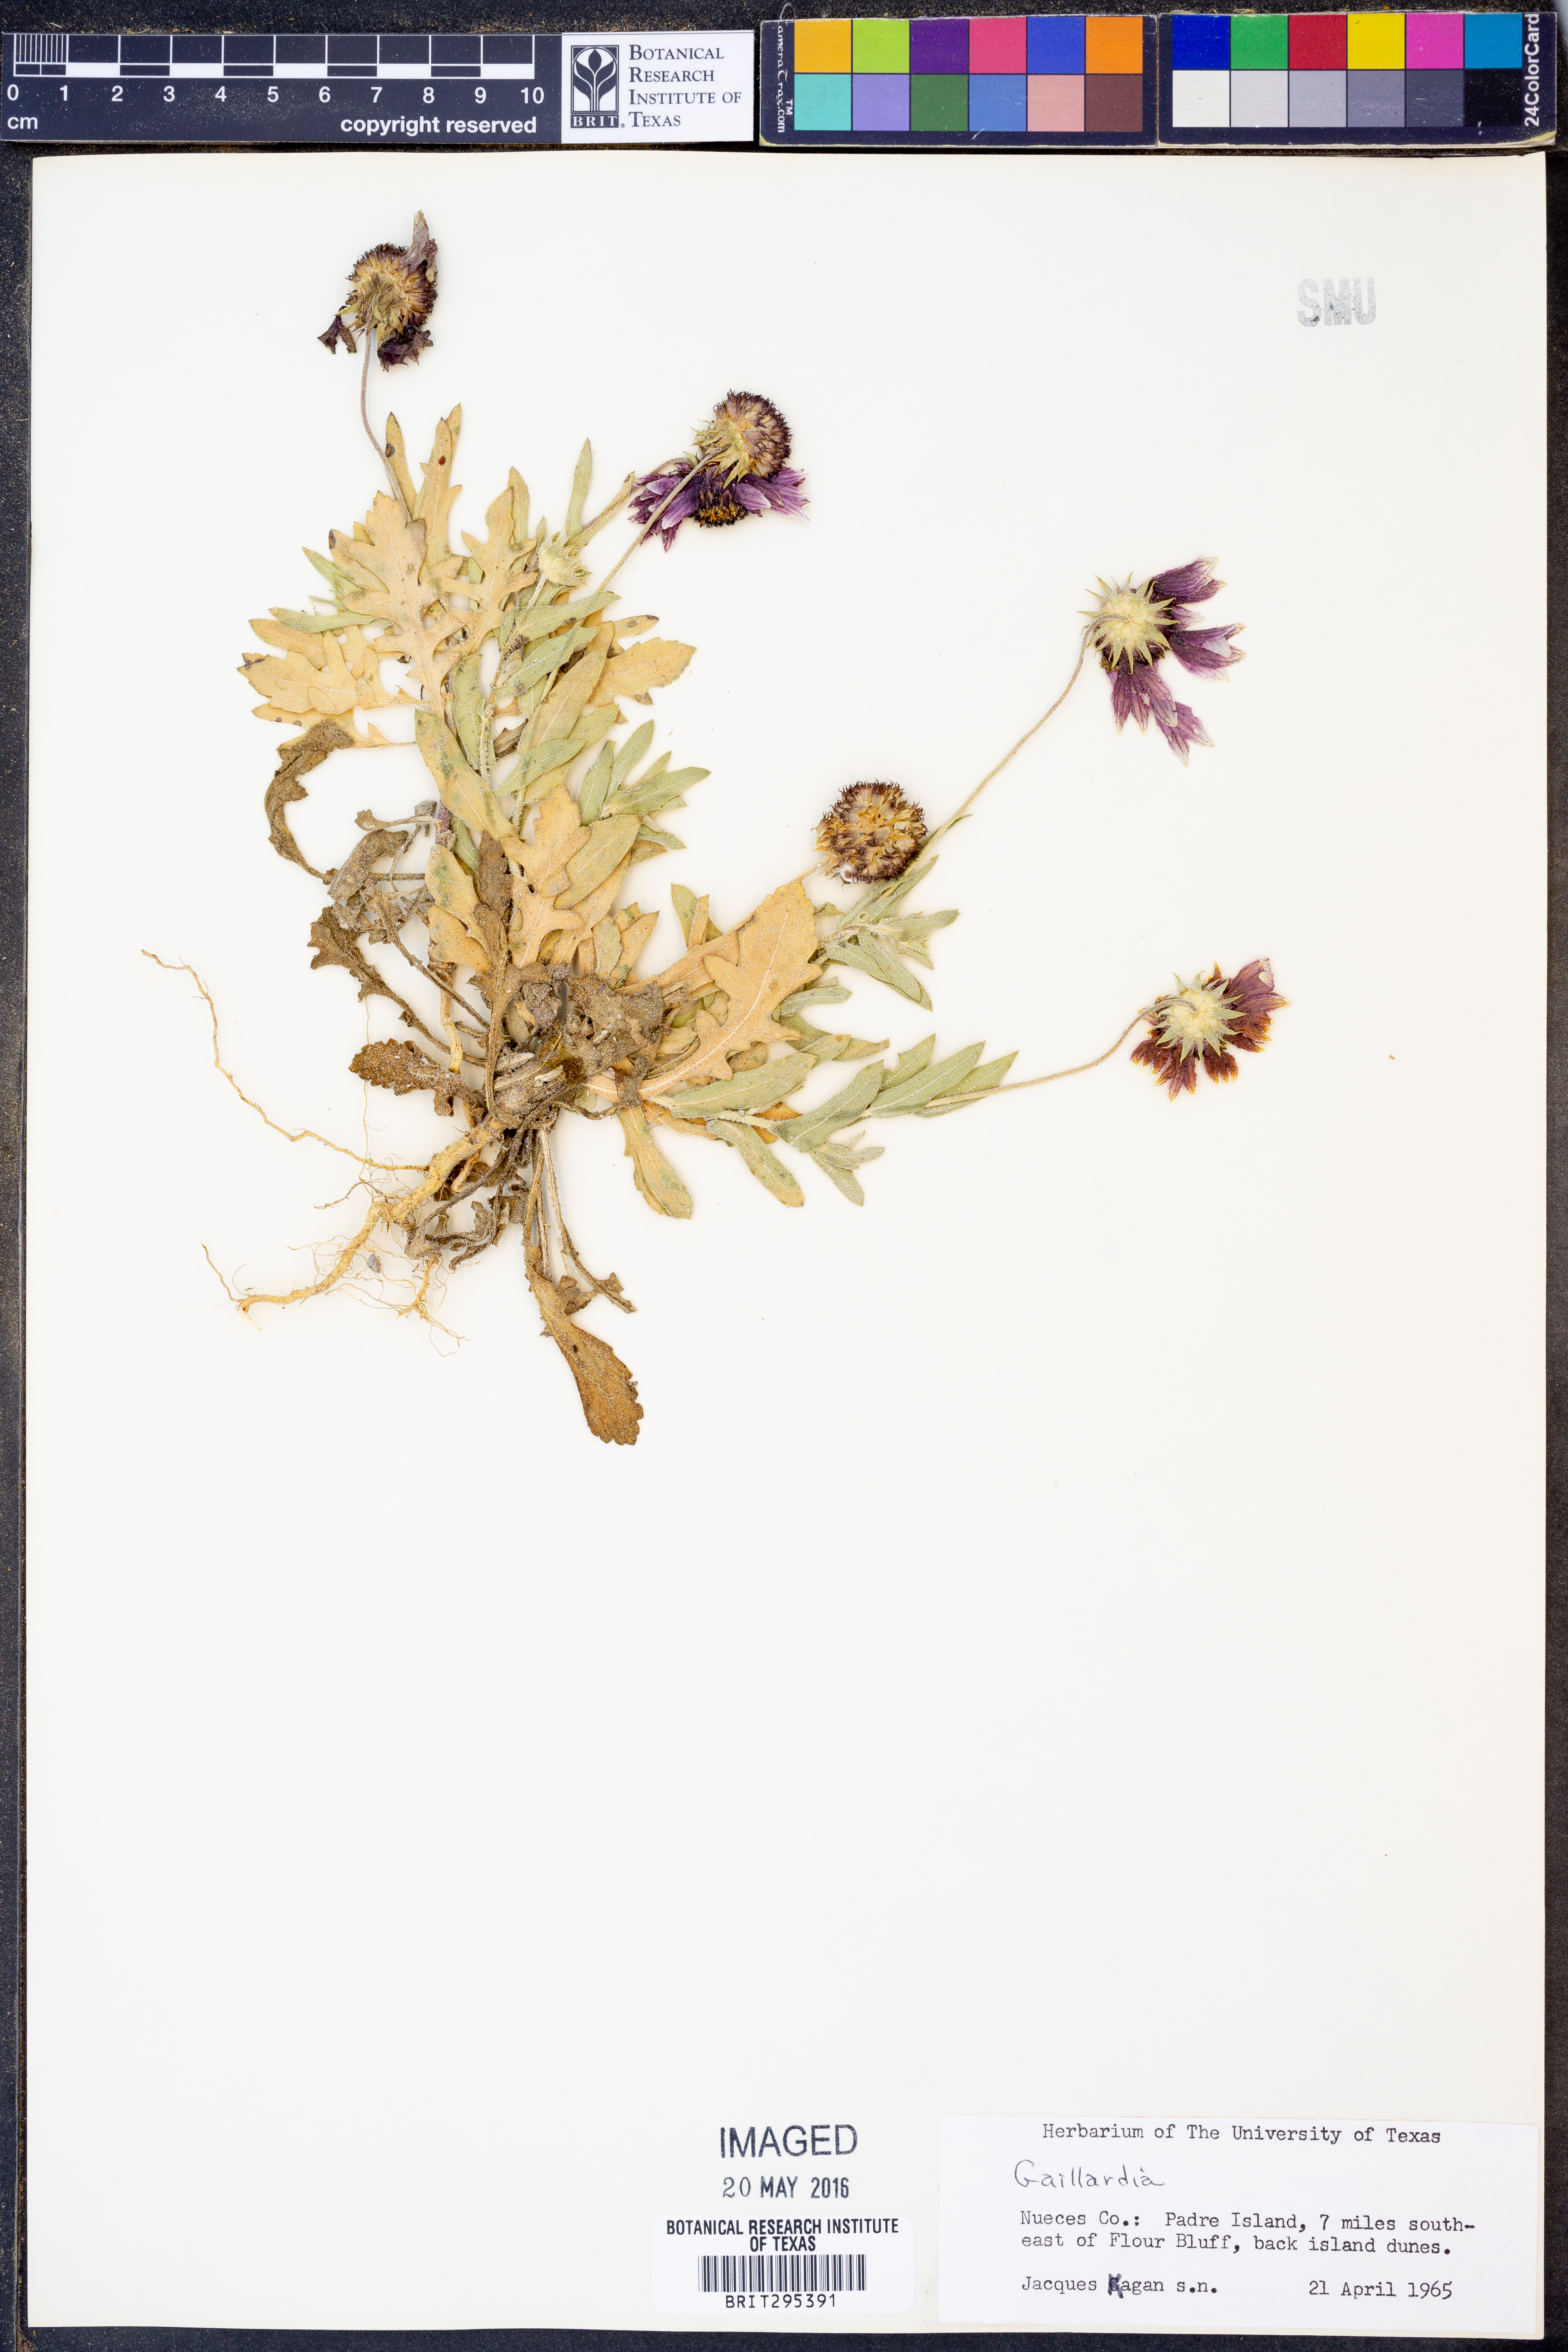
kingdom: Plantae
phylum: Tracheophyta
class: Magnoliopsida
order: Asterales
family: Asteraceae
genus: Gaillardia
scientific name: Gaillardia
